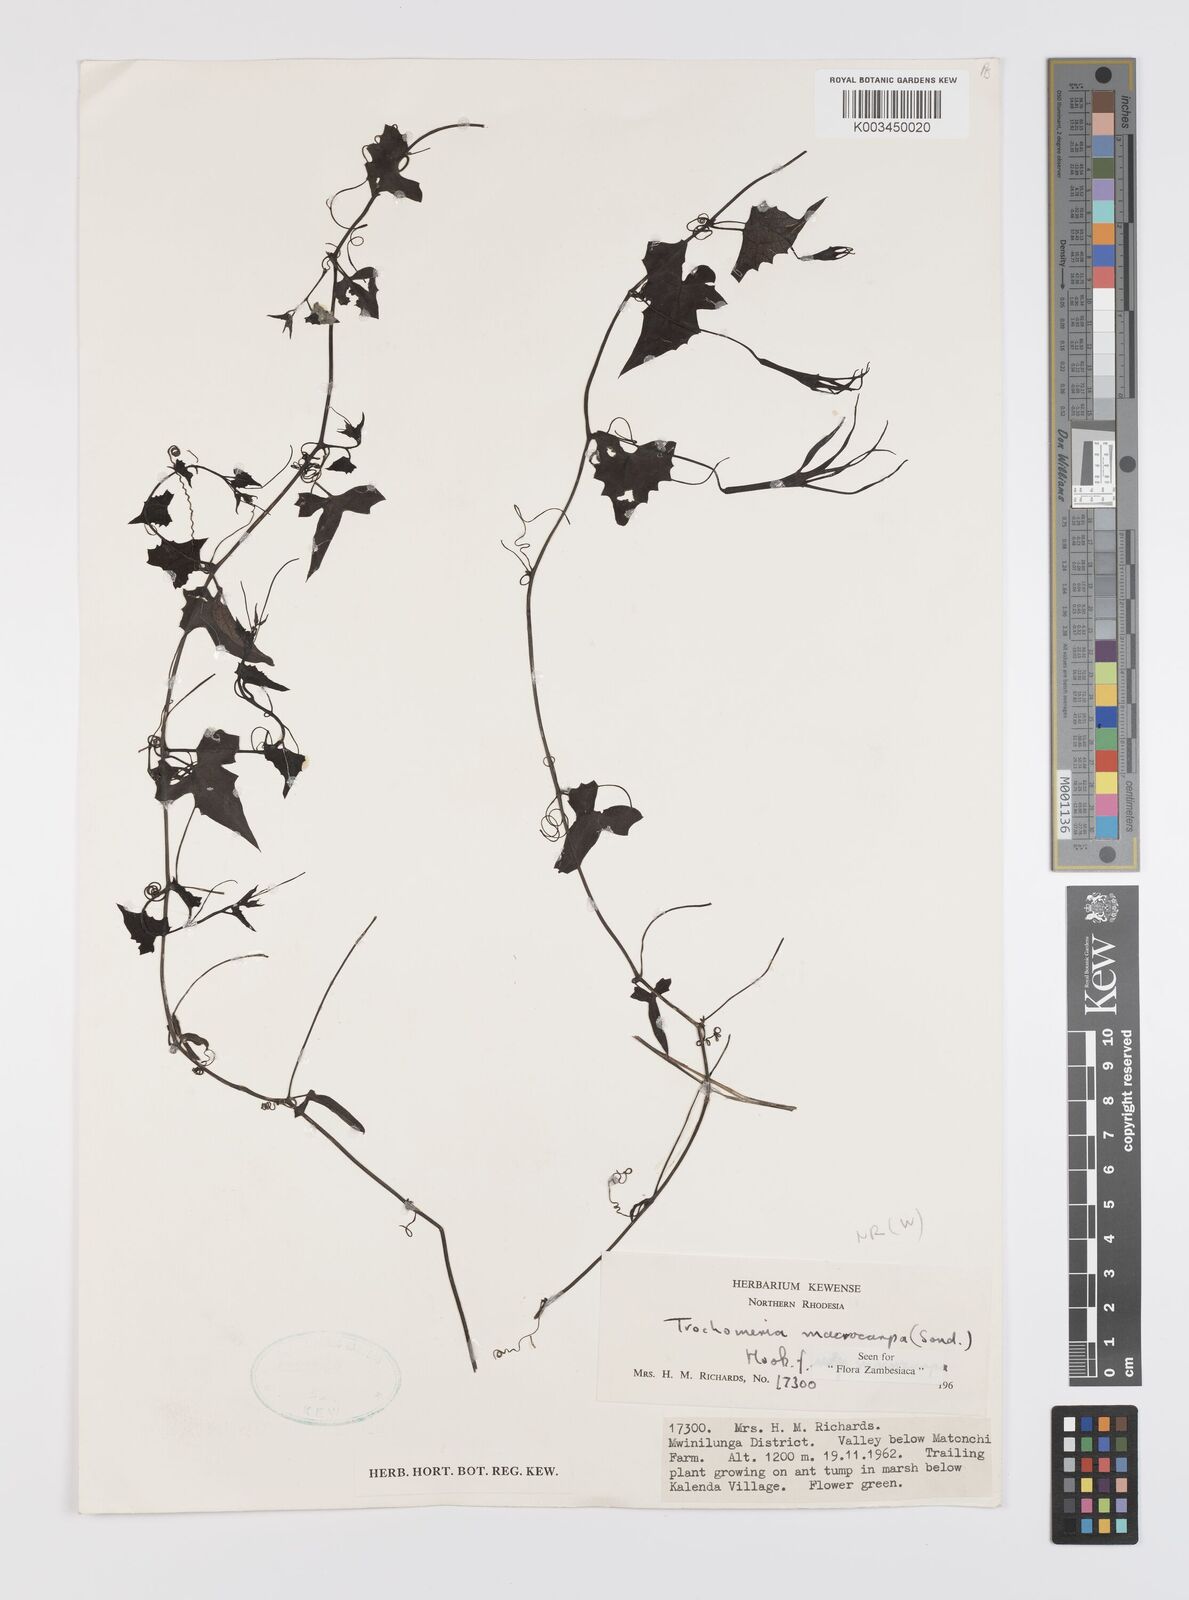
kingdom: Plantae
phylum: Tracheophyta
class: Magnoliopsida
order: Cucurbitales
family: Cucurbitaceae
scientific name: Cucurbitaceae
